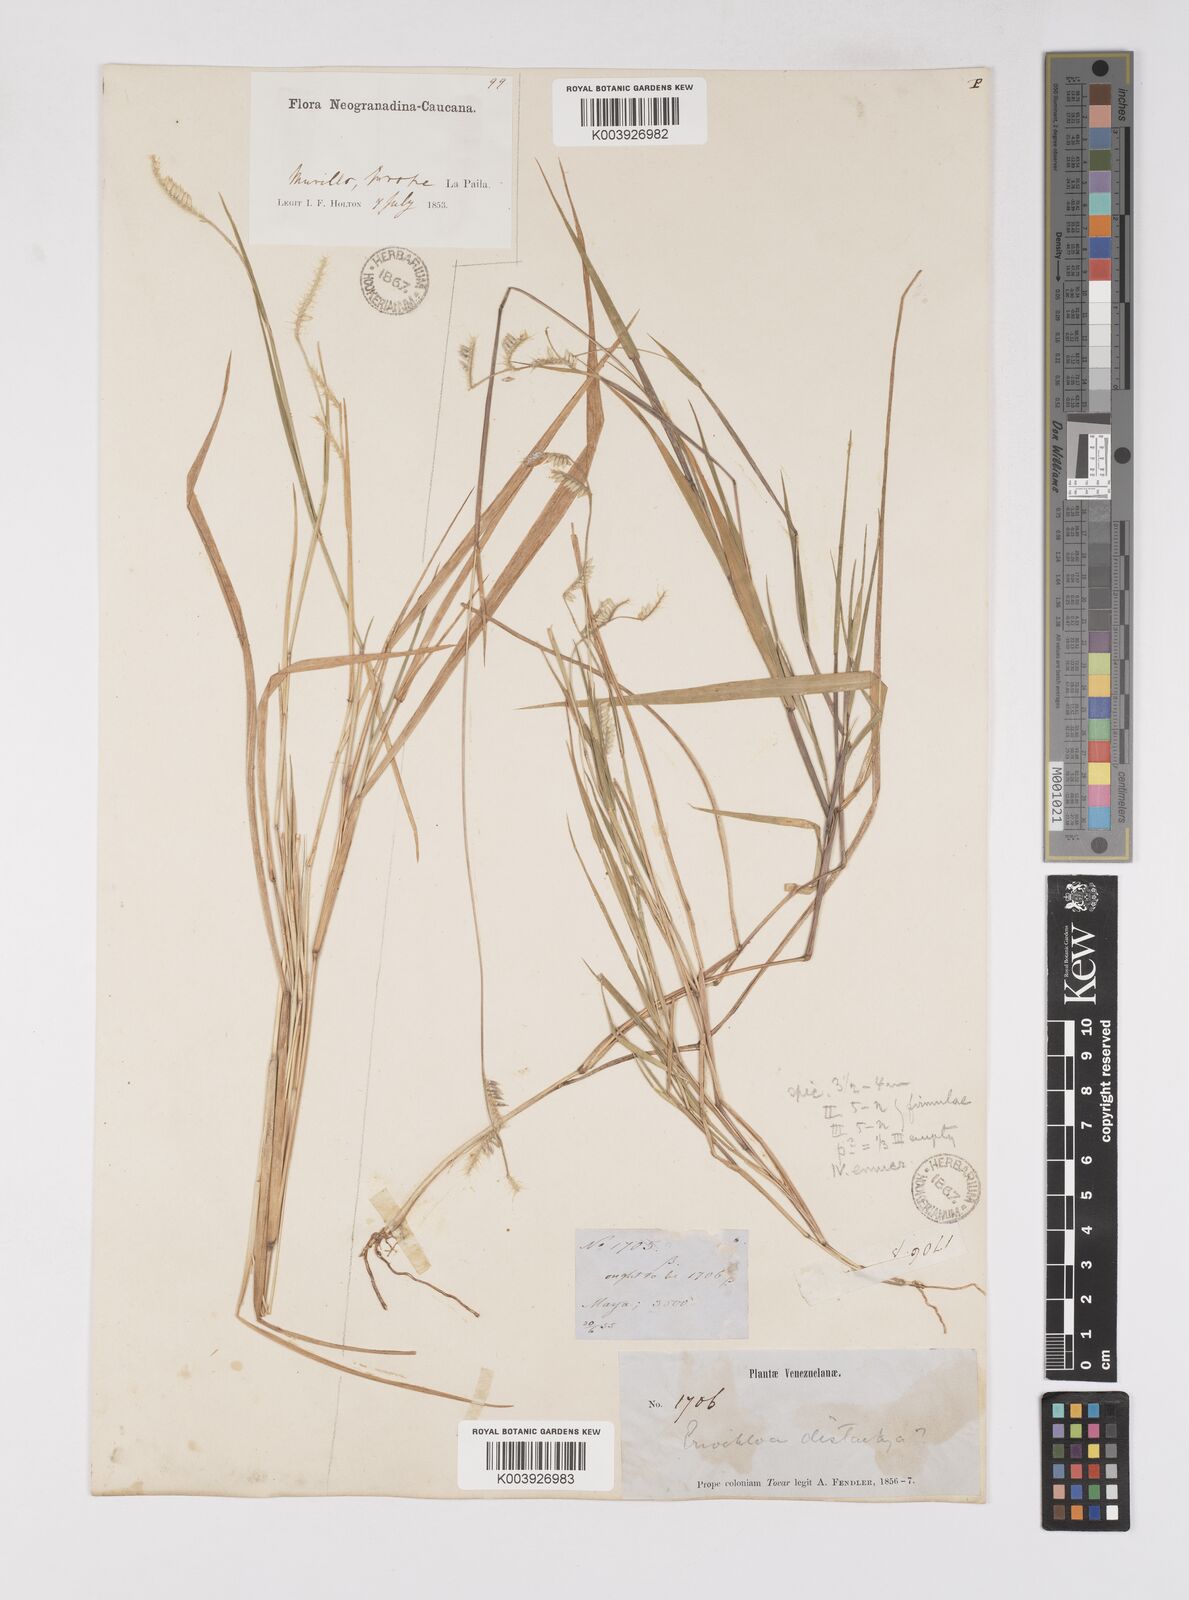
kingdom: Plantae
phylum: Tracheophyta
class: Liliopsida
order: Poales
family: Poaceae
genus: Eriochloa
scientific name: Eriochloa distachya
